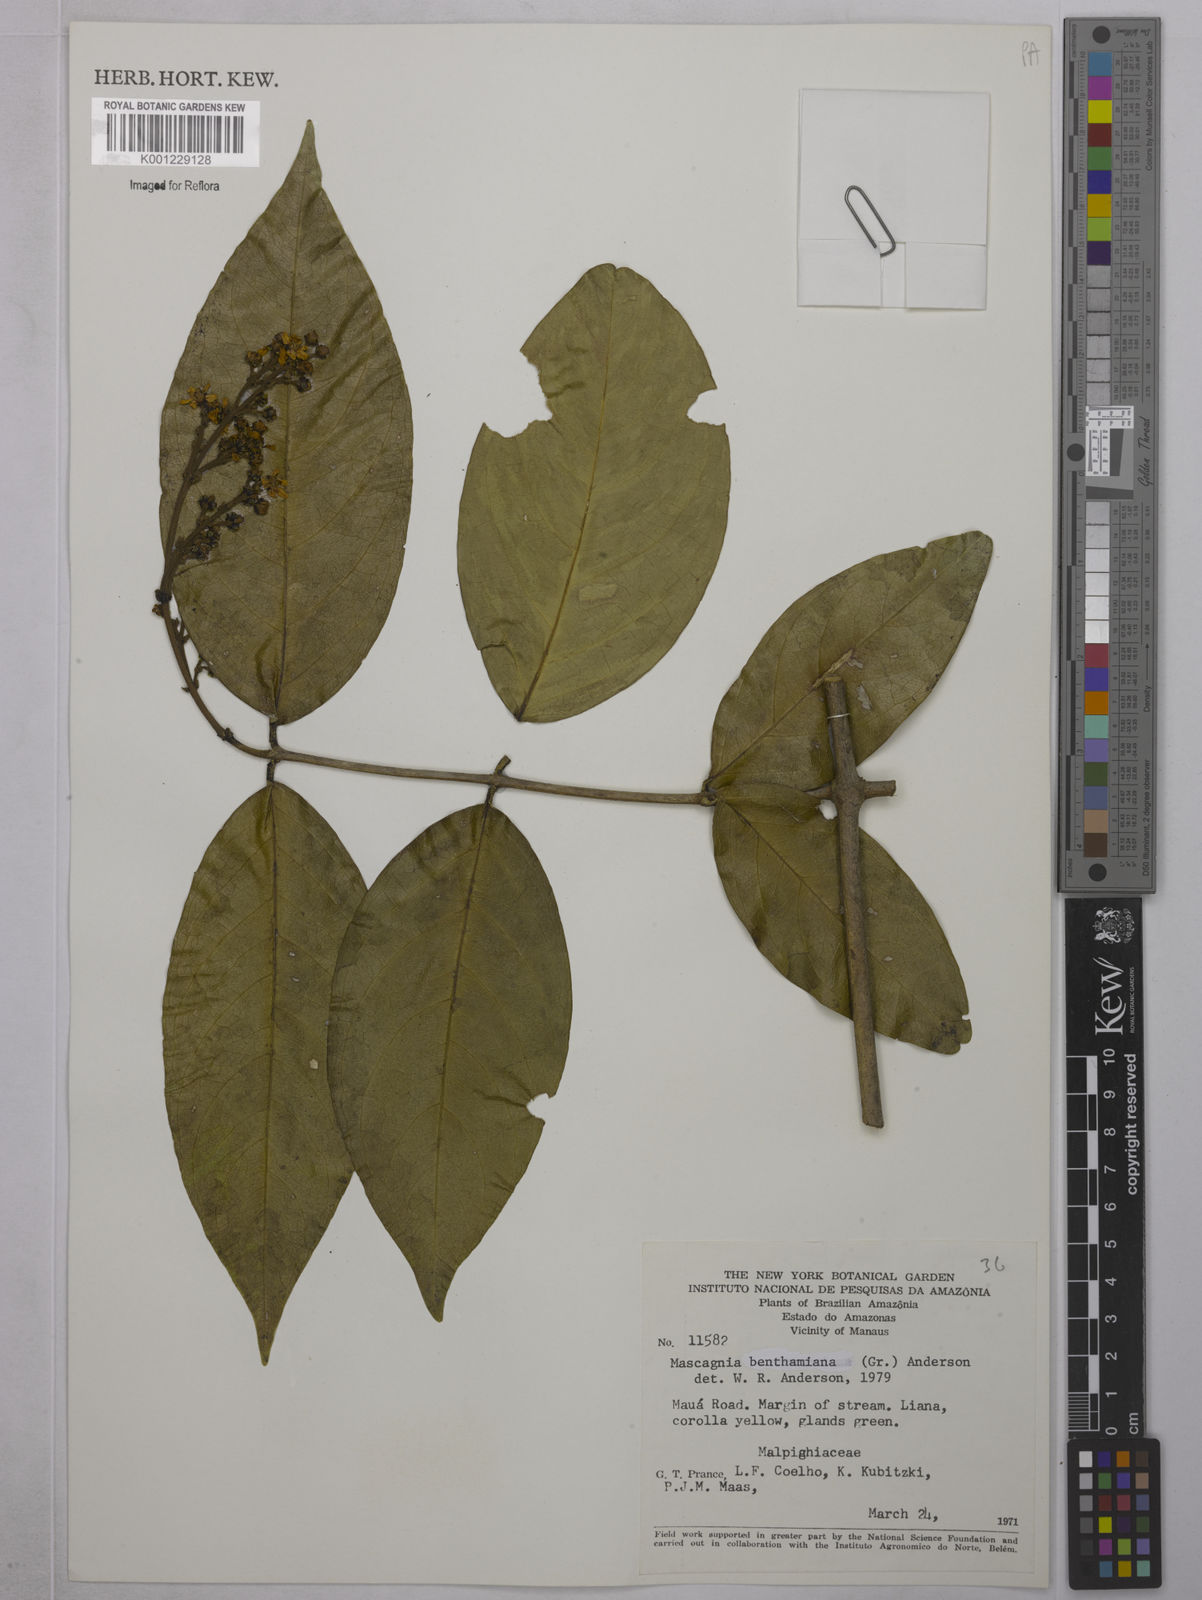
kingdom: Plantae
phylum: Tracheophyta
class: Magnoliopsida
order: Malpighiales
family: Malpighiaceae
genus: Niedenzuella
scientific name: Niedenzuella stannea
